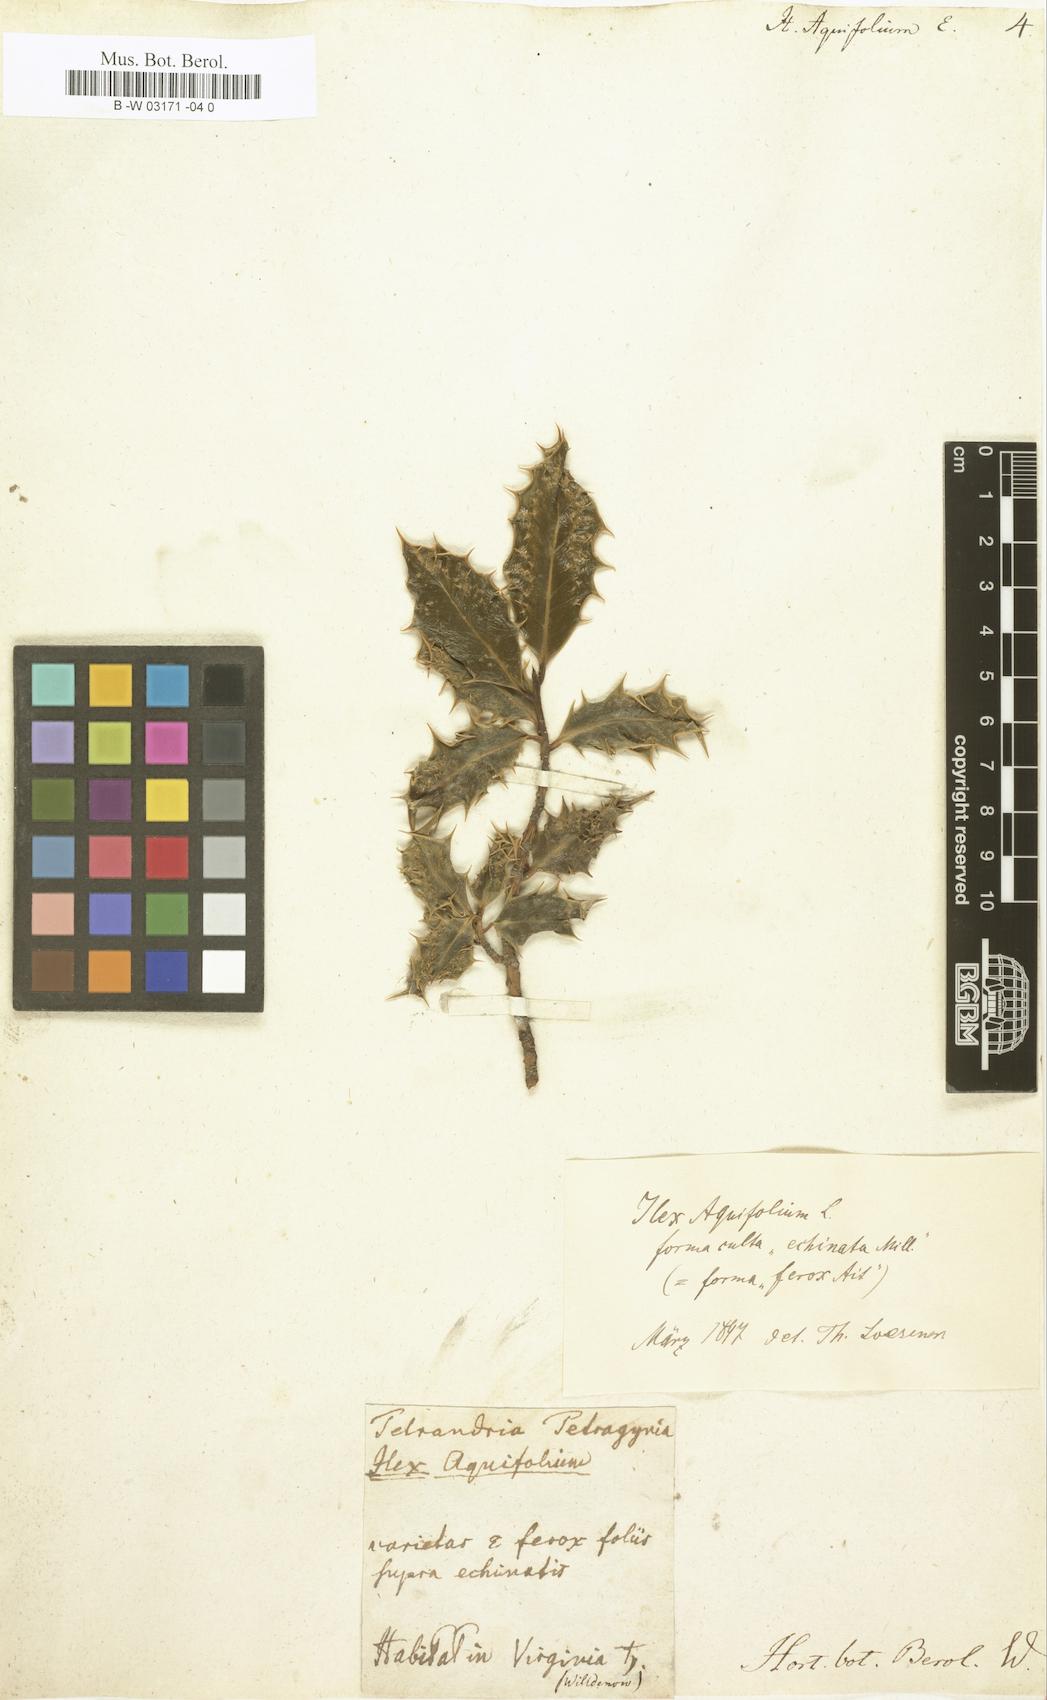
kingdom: Plantae
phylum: Tracheophyta
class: Magnoliopsida
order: Aquifoliales
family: Aquifoliaceae
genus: Ilex
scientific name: Ilex aquifolium
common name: English holly
